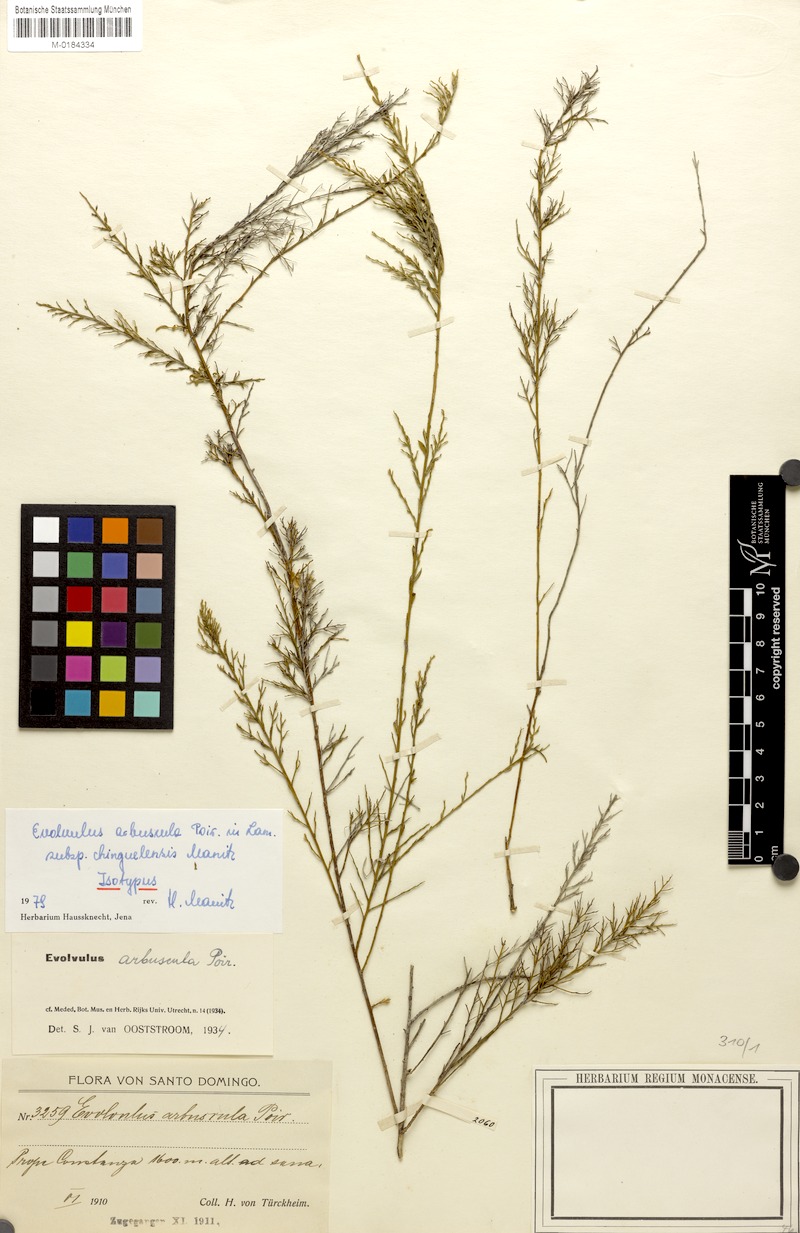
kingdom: Plantae
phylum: Tracheophyta
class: Magnoliopsida
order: Solanales
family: Convolvulaceae
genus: Evolvulus
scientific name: Evolvulus arbuscula
